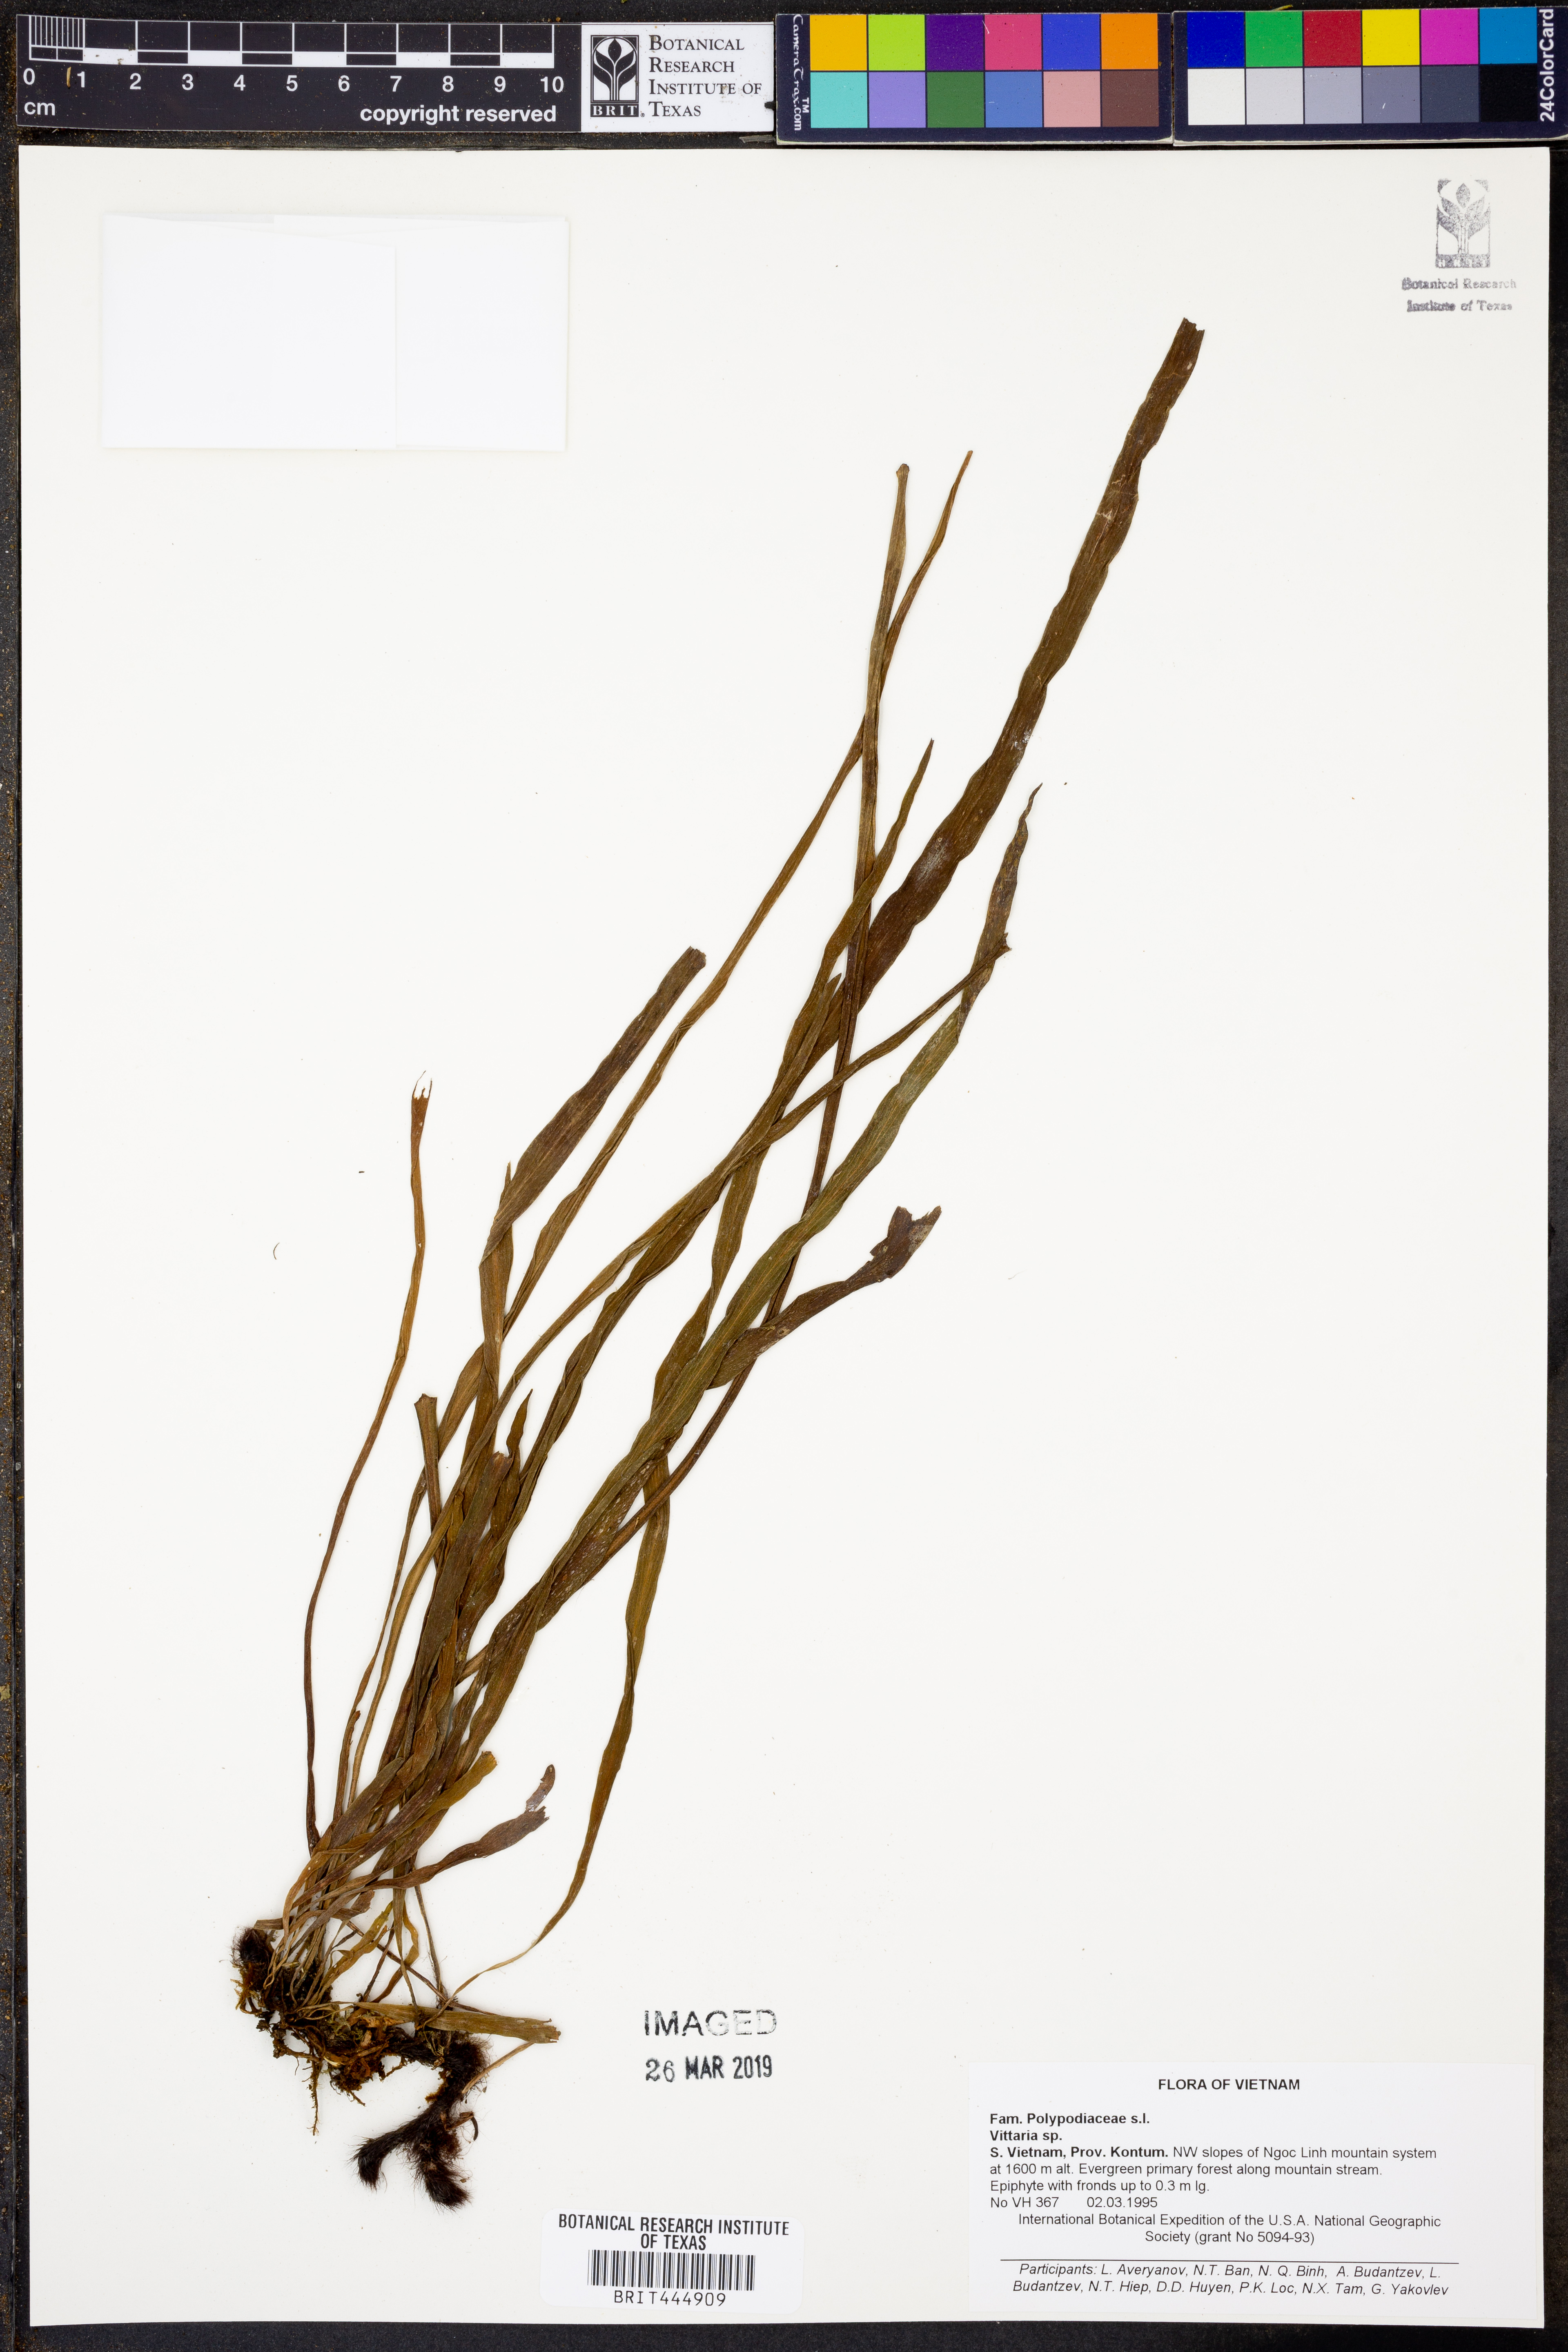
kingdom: Plantae
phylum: Tracheophyta
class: Polypodiopsida
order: Polypodiales
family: Pteridaceae
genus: Vittaria
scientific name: Vittaria
